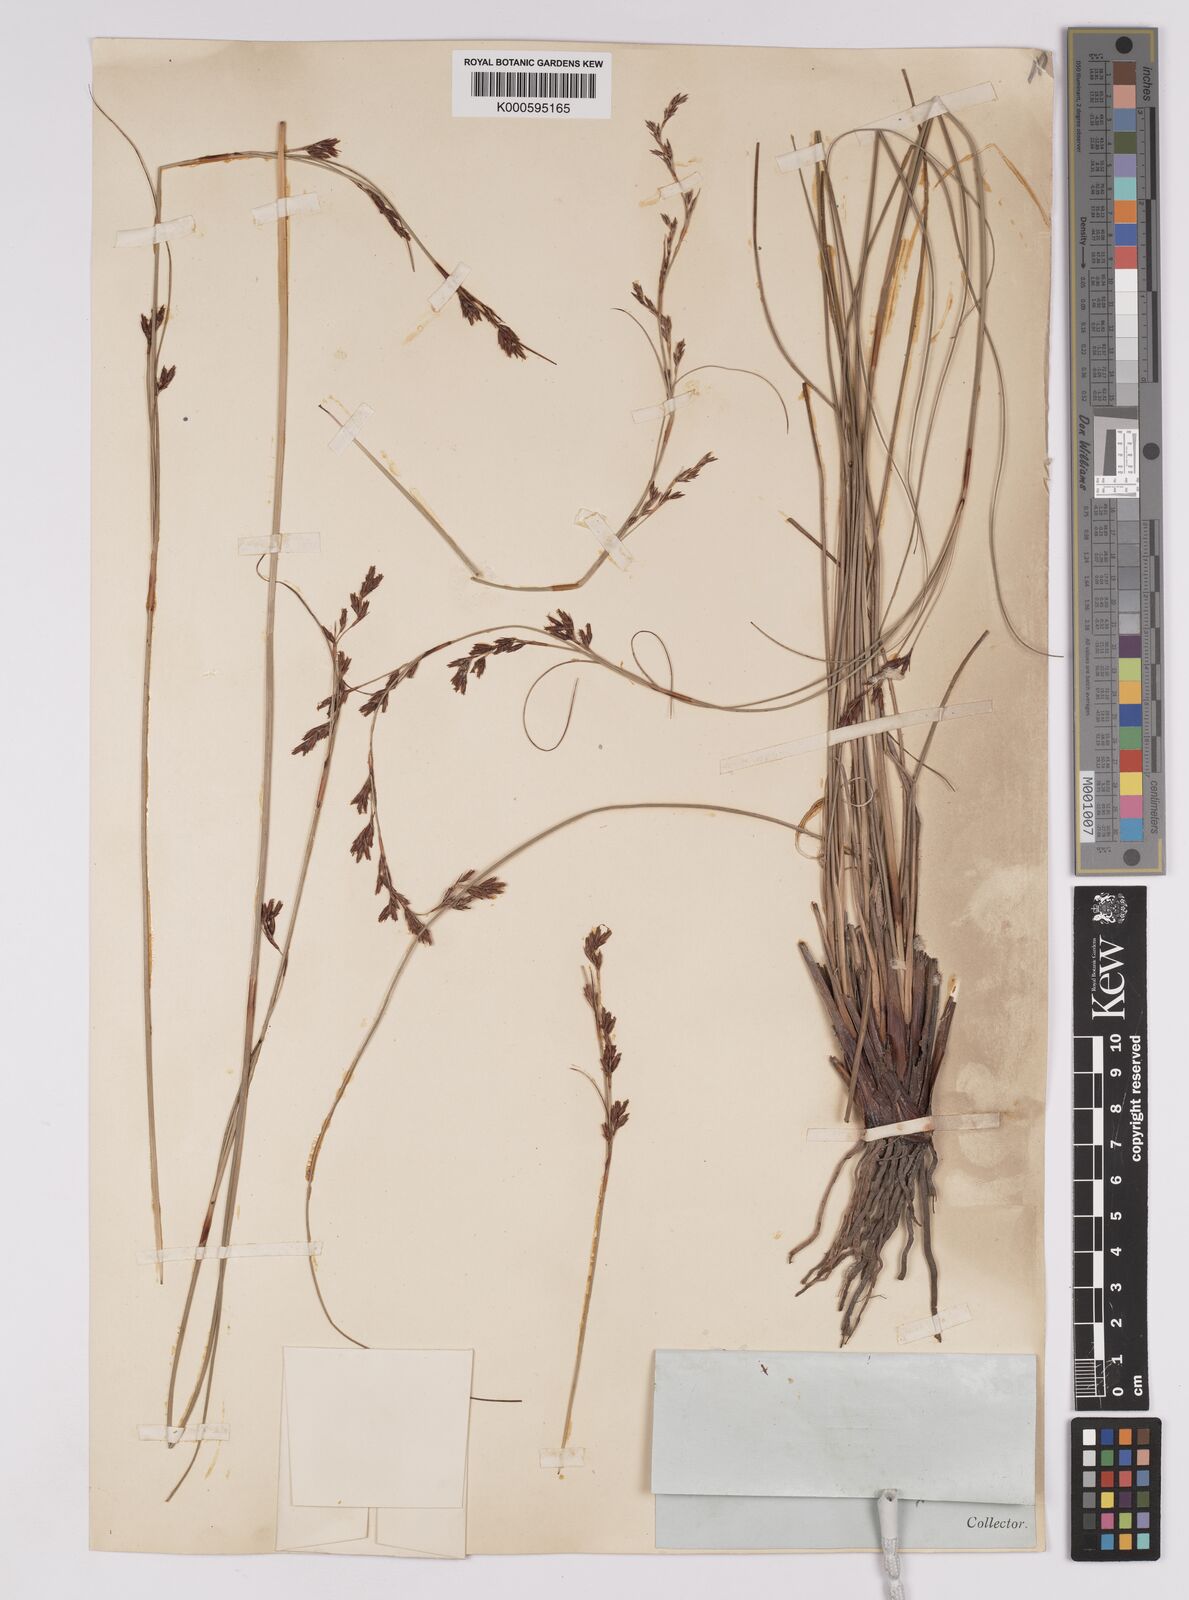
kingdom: Plantae
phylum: Tracheophyta
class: Liliopsida
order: Poales
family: Cyperaceae
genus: Anthelepis
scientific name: Anthelepis undulata
